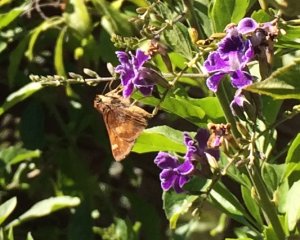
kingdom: Animalia
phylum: Arthropoda
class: Insecta
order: Lepidoptera
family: Hesperiidae
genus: Lon
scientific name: Lon melane
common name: Umber Skipper
